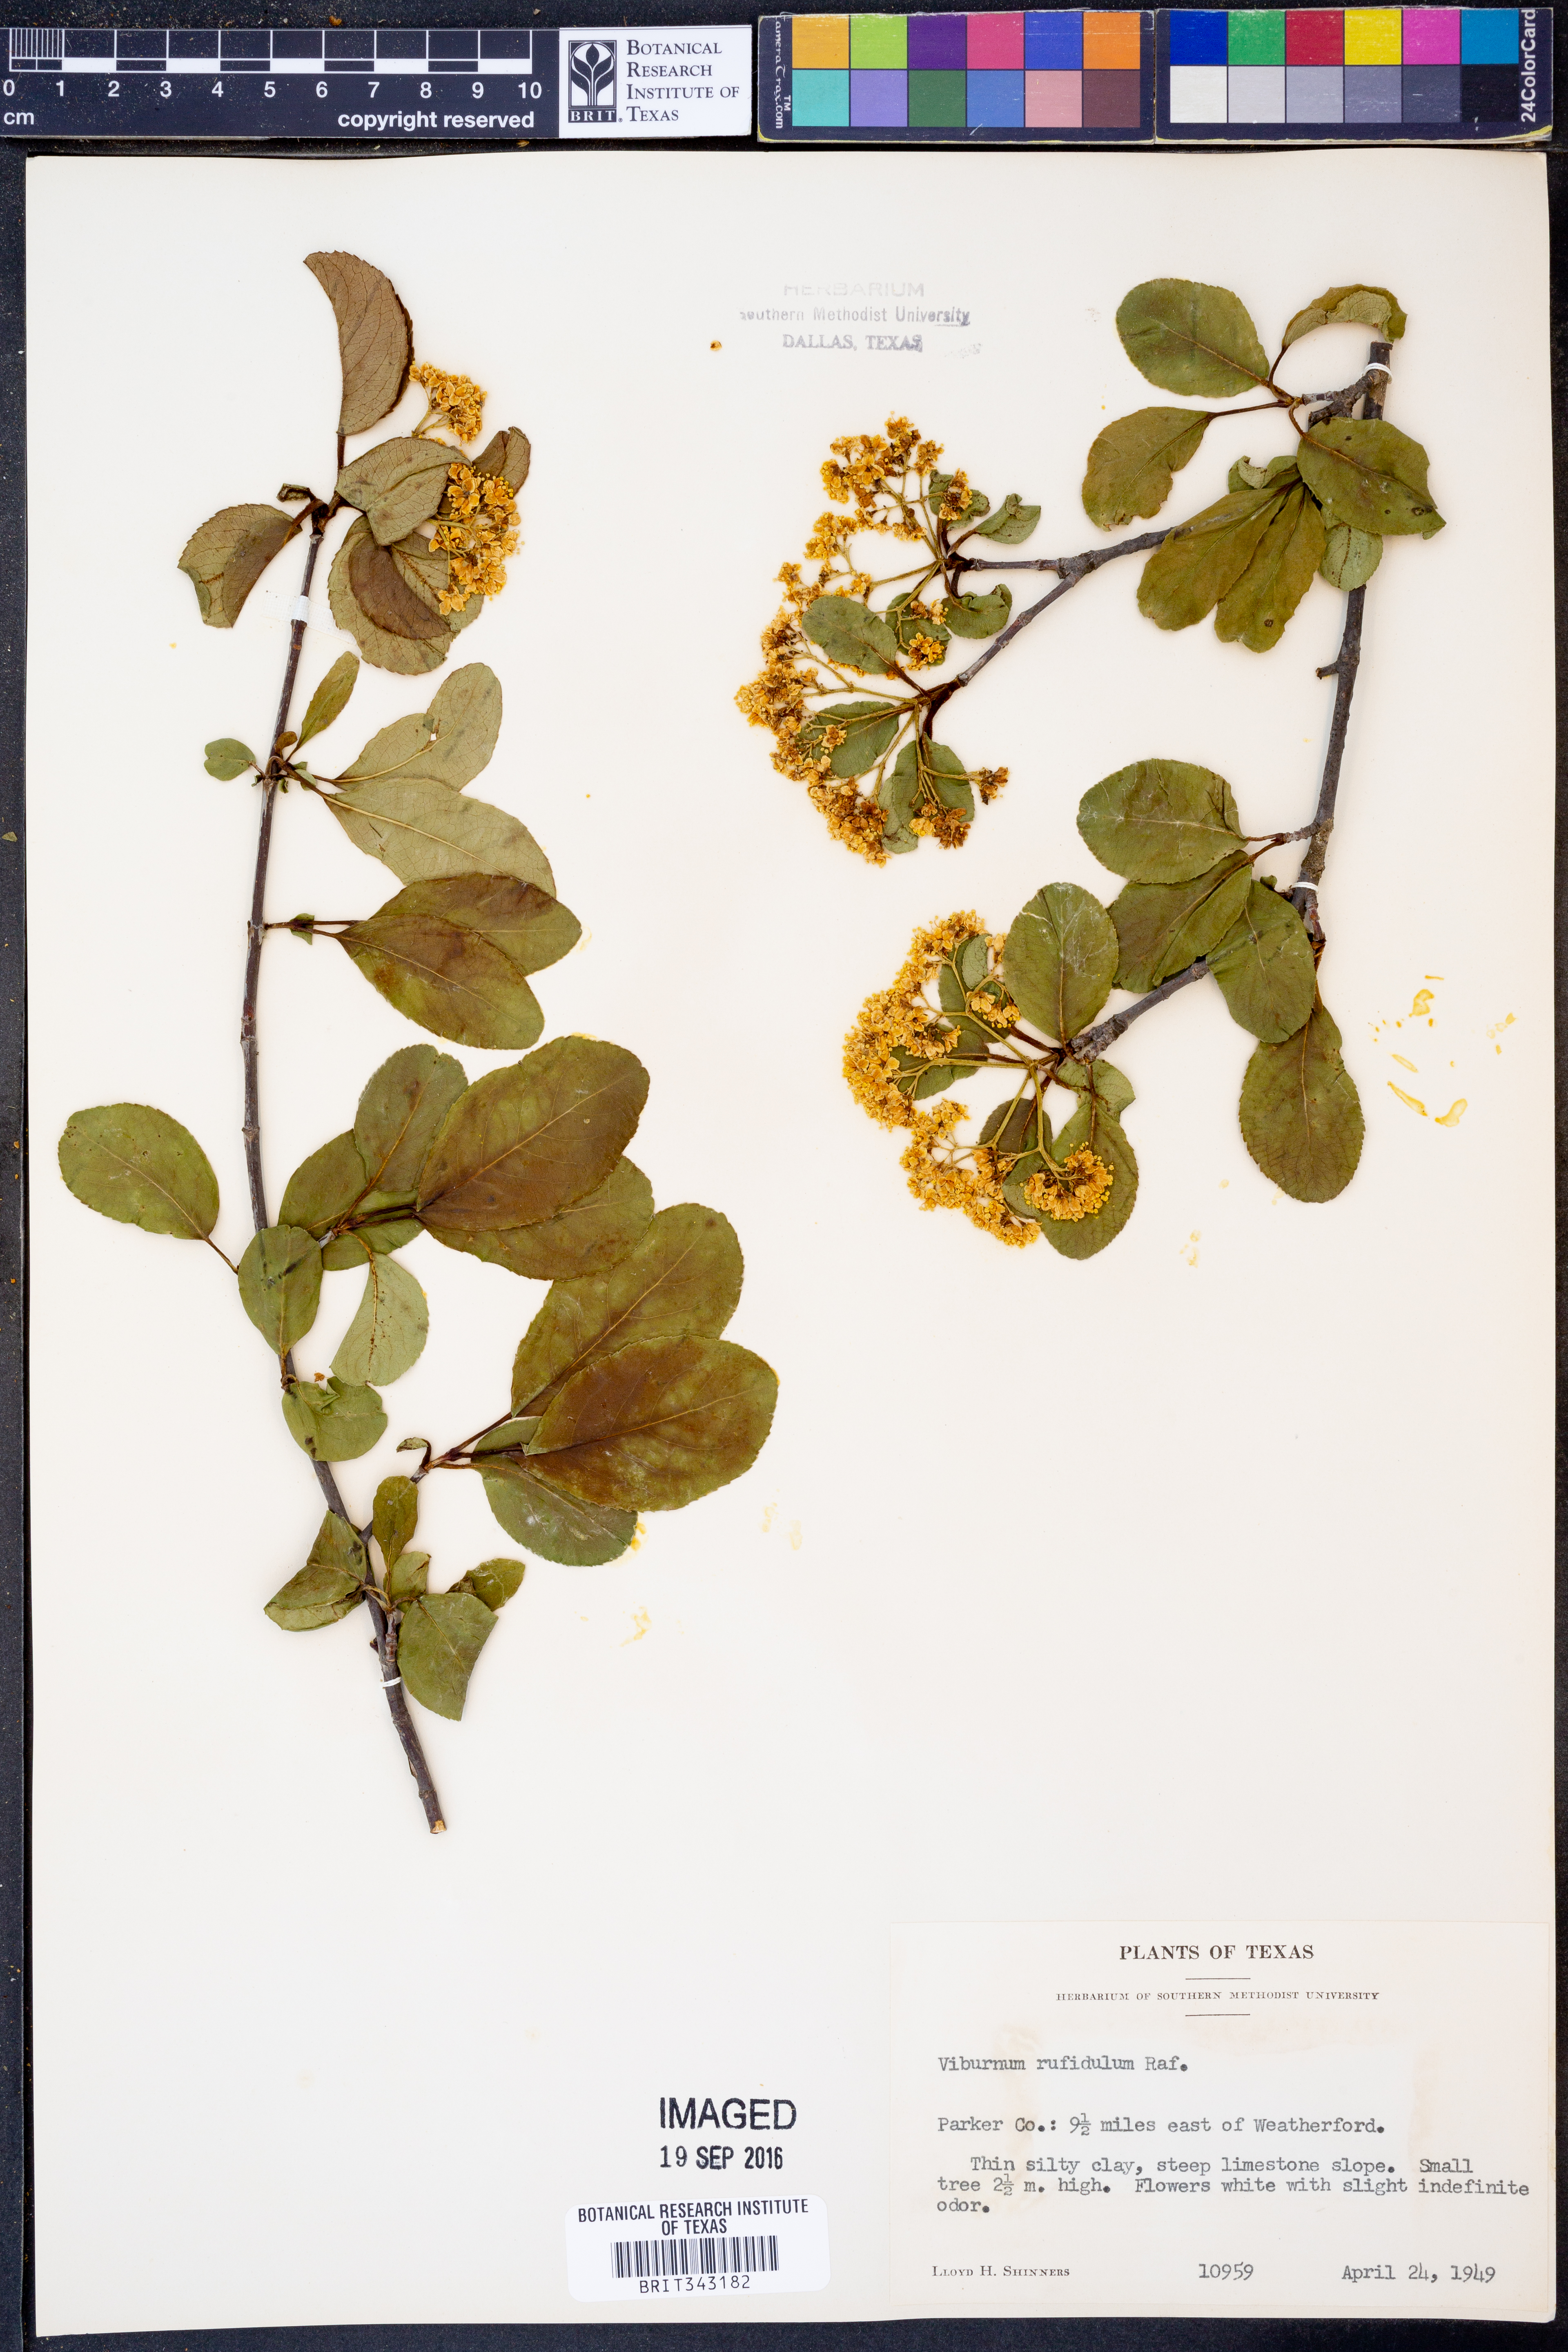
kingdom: Plantae
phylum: Tracheophyta
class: Magnoliopsida
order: Dipsacales
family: Viburnaceae
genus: Viburnum
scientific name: Viburnum rufidulum
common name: Blue haw
